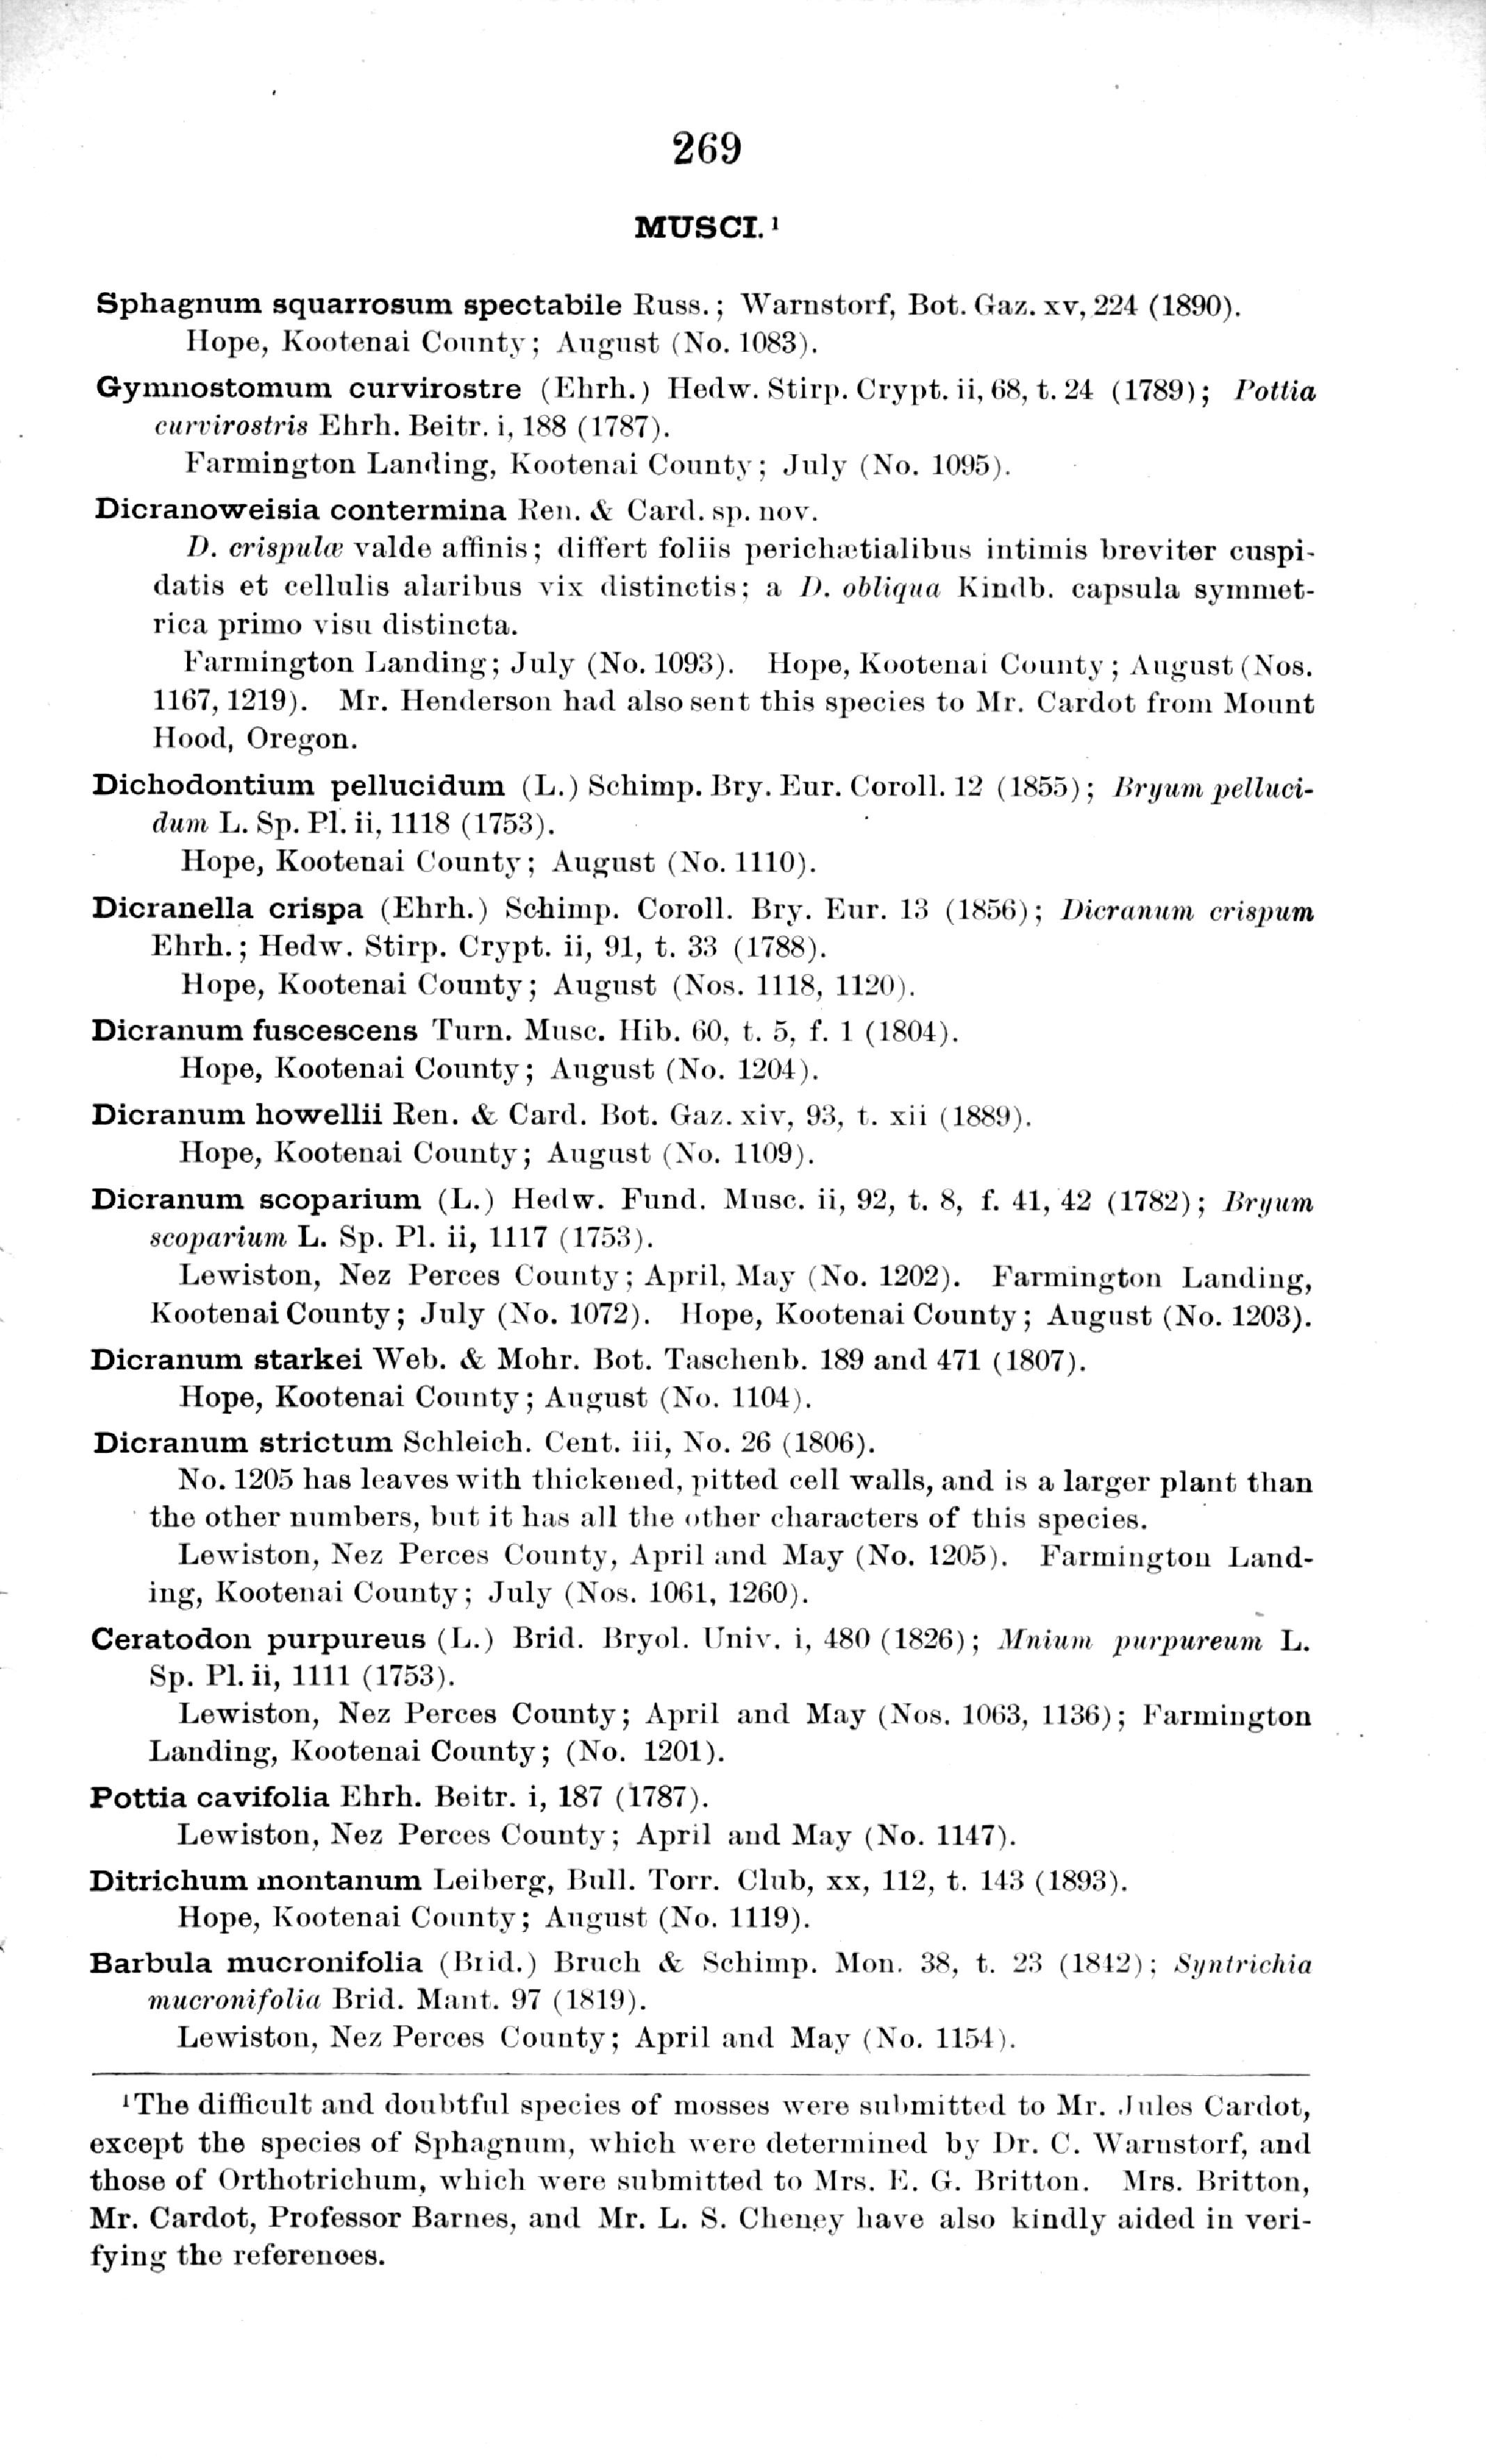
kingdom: Plantae
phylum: Bryophyta
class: Bryopsida
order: Scouleriales
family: Hymenolomataceae
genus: Hymenoloma
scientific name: Hymenoloma crispulum
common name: Mountain pincushion
